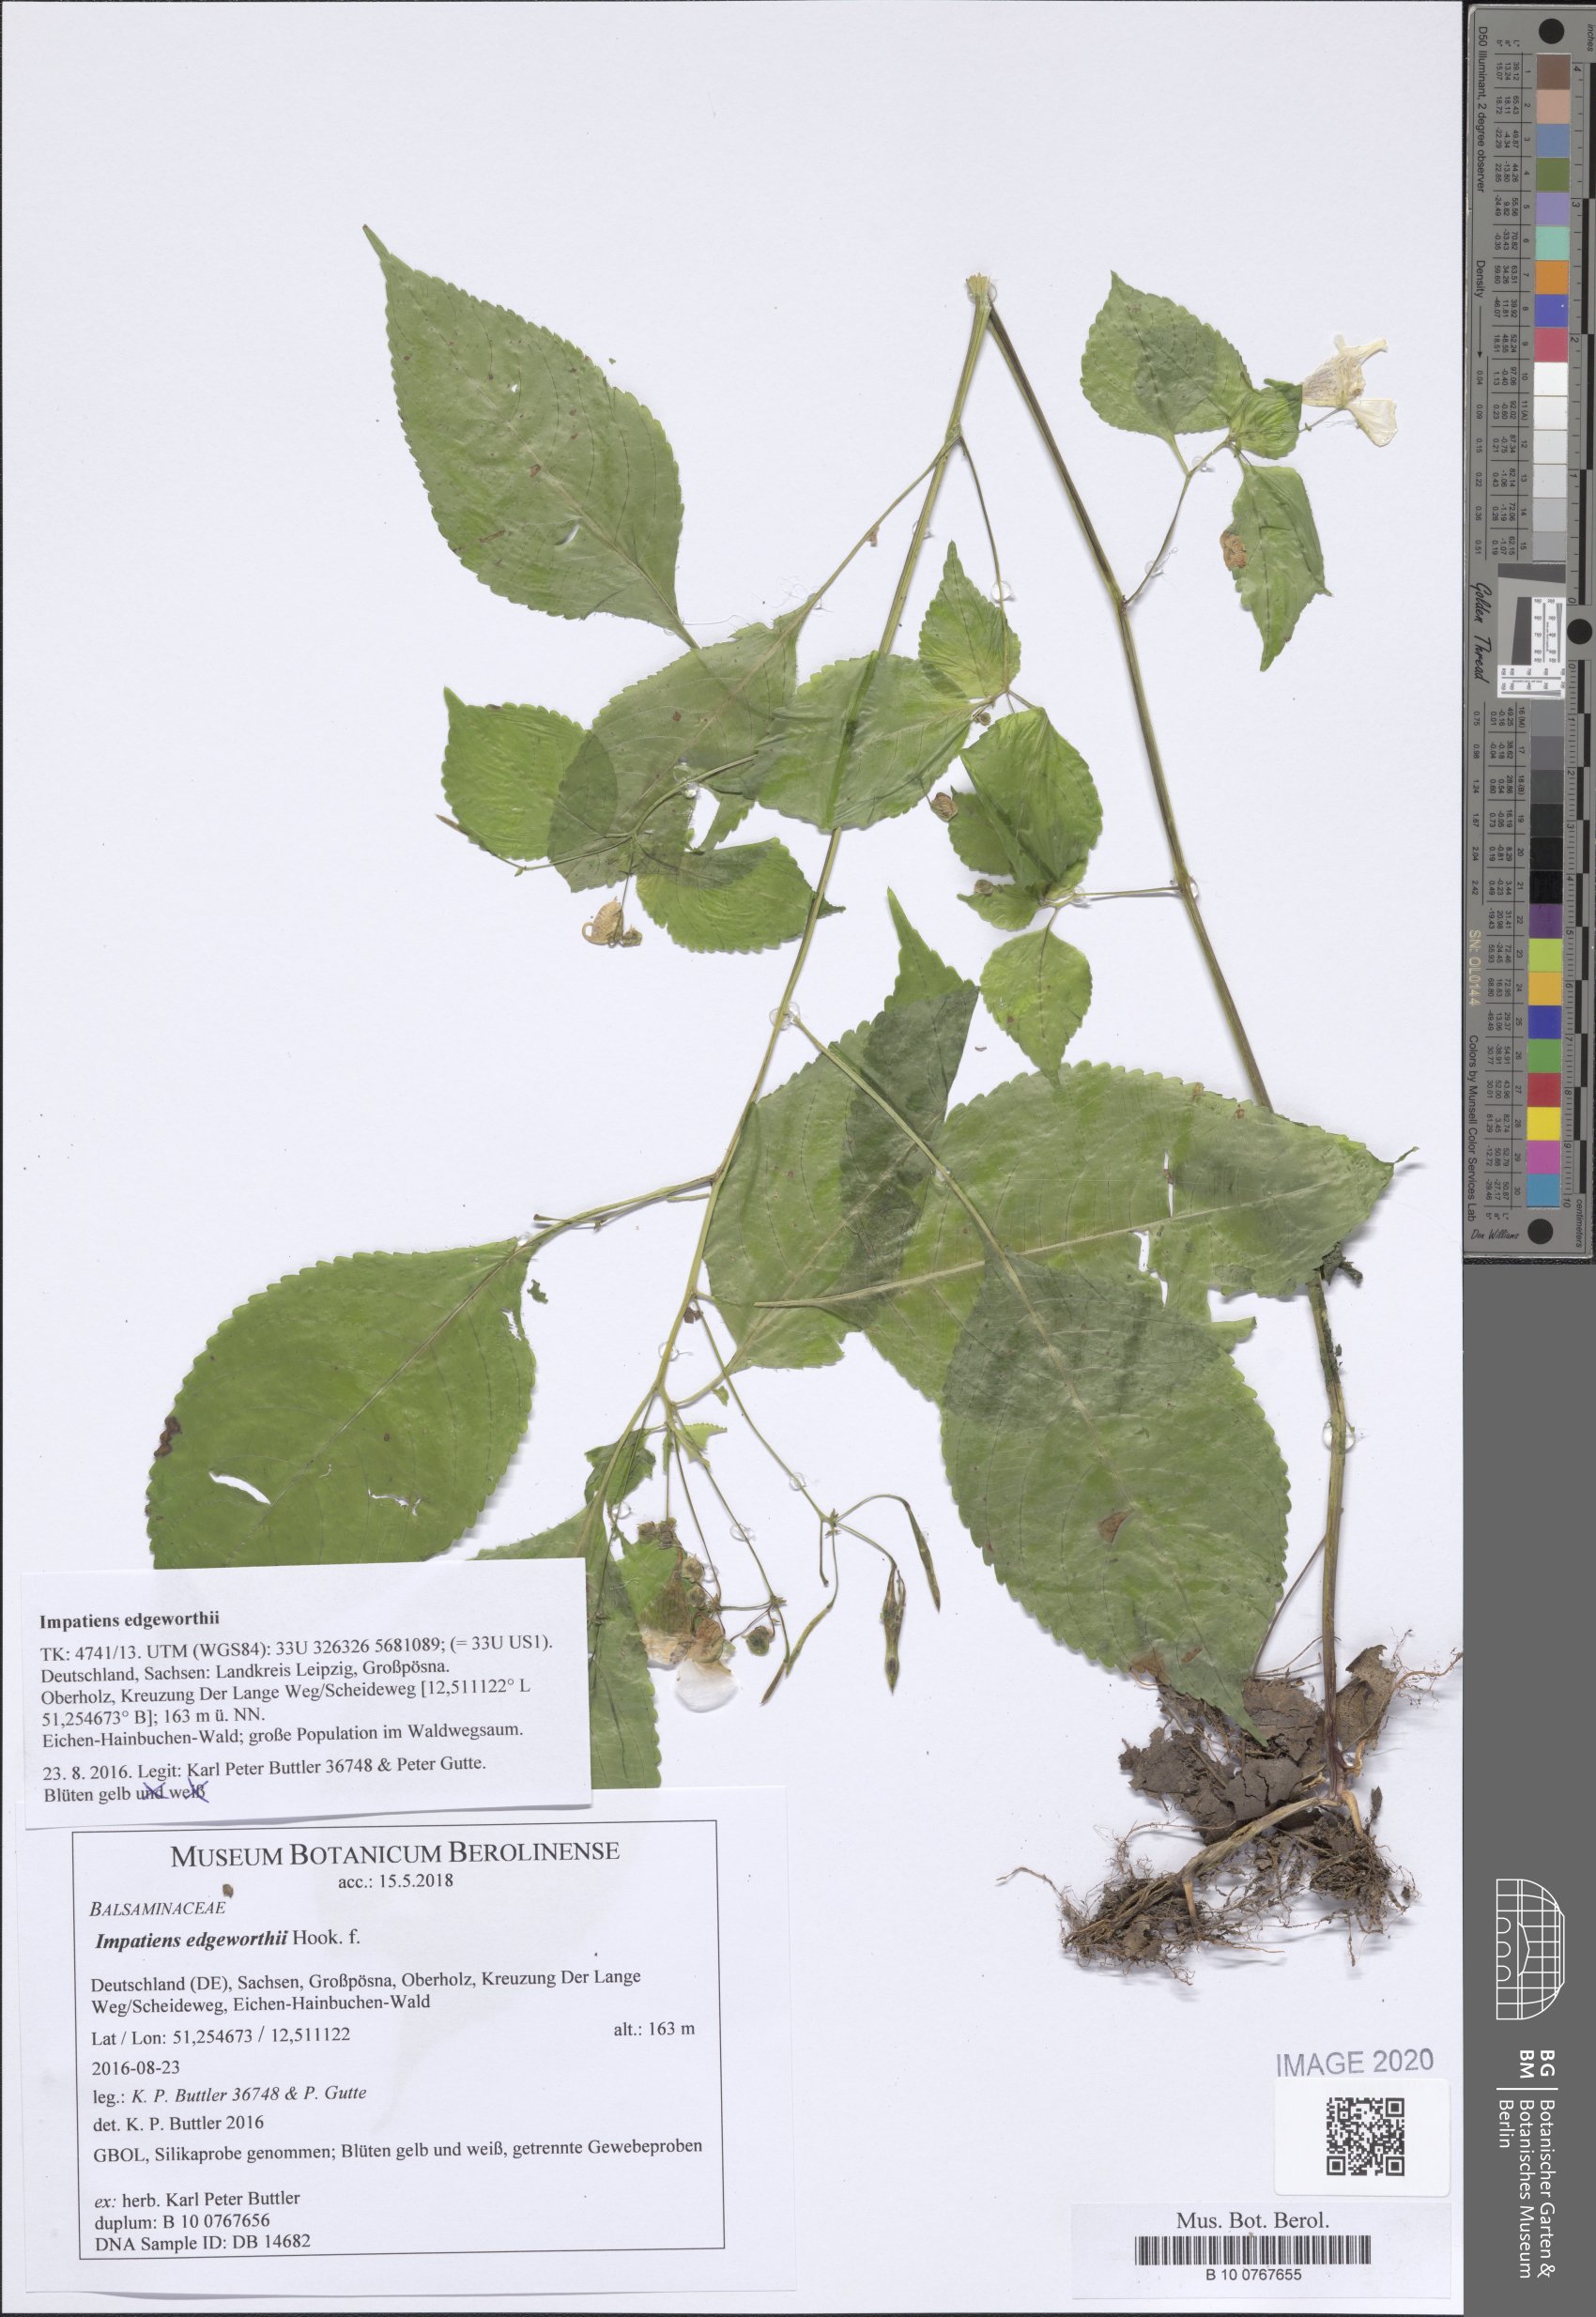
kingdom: Plantae
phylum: Tracheophyta
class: Magnoliopsida
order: Ericales
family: Balsaminaceae
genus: Impatiens
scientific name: Impatiens edgeworthii
